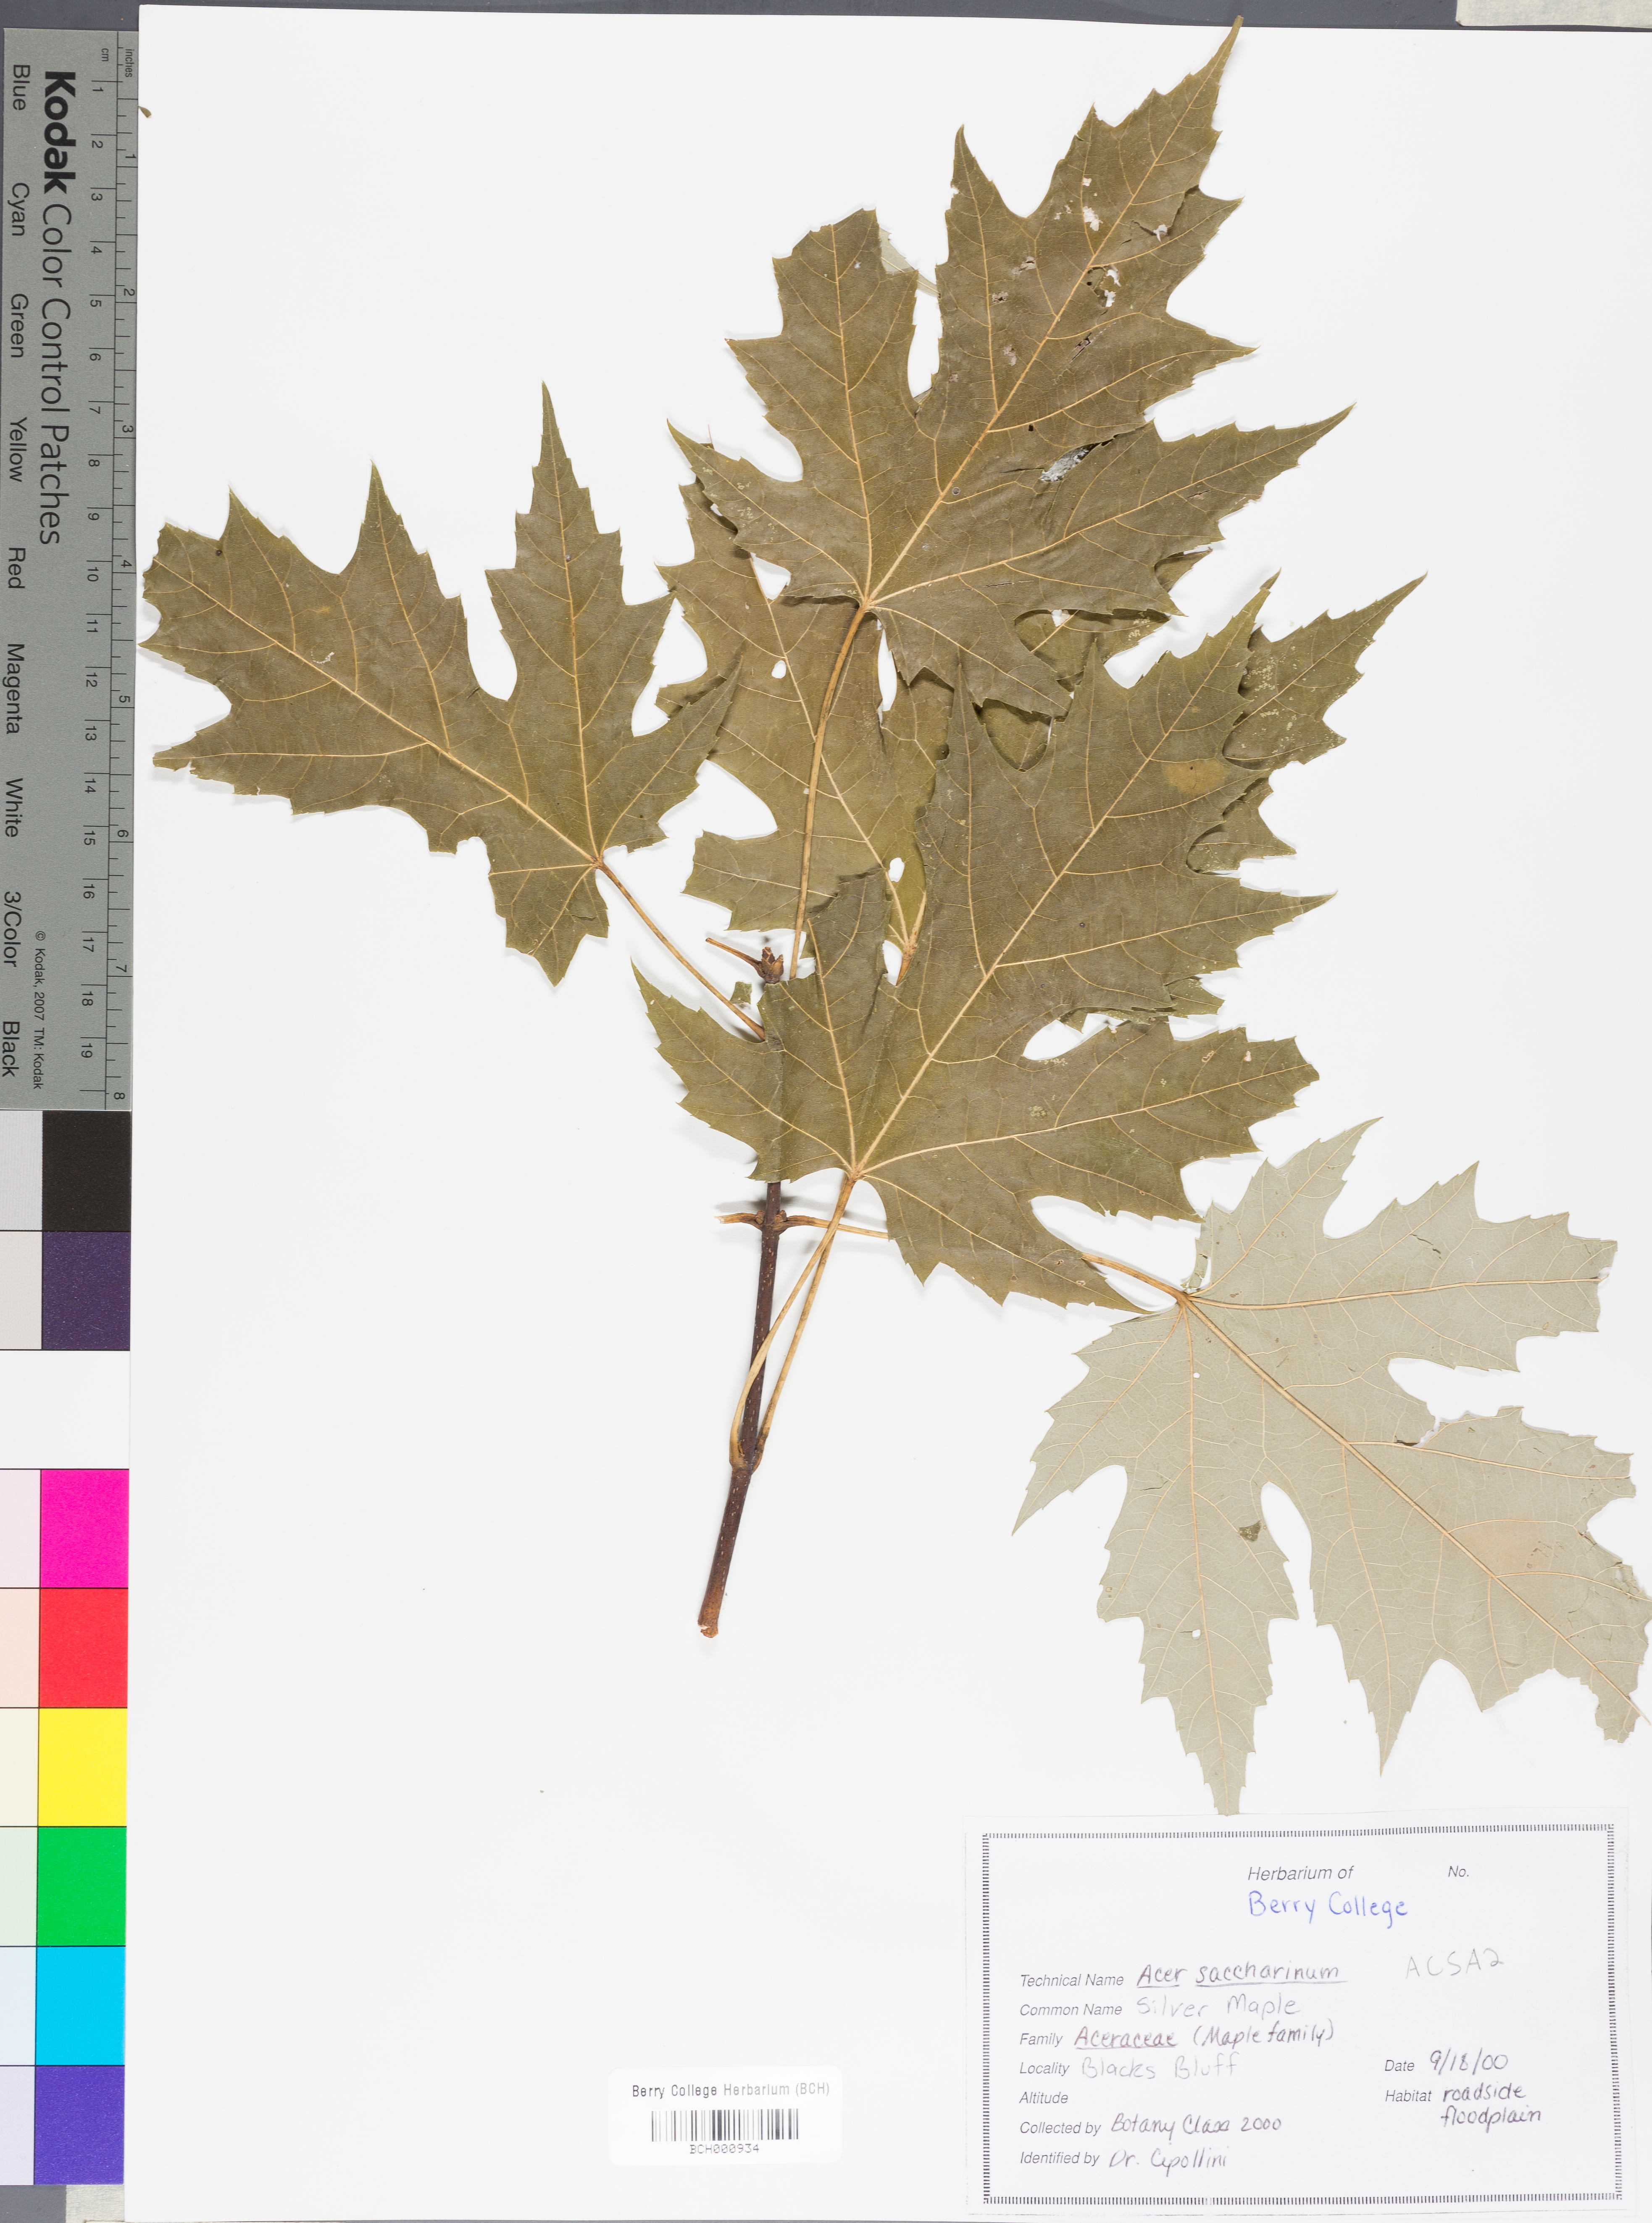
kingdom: Plantae
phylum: Tracheophyta
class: Magnoliopsida
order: Sapindales
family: Sapindaceae
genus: Acer
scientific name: Acer saccharinum
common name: Silver maple
